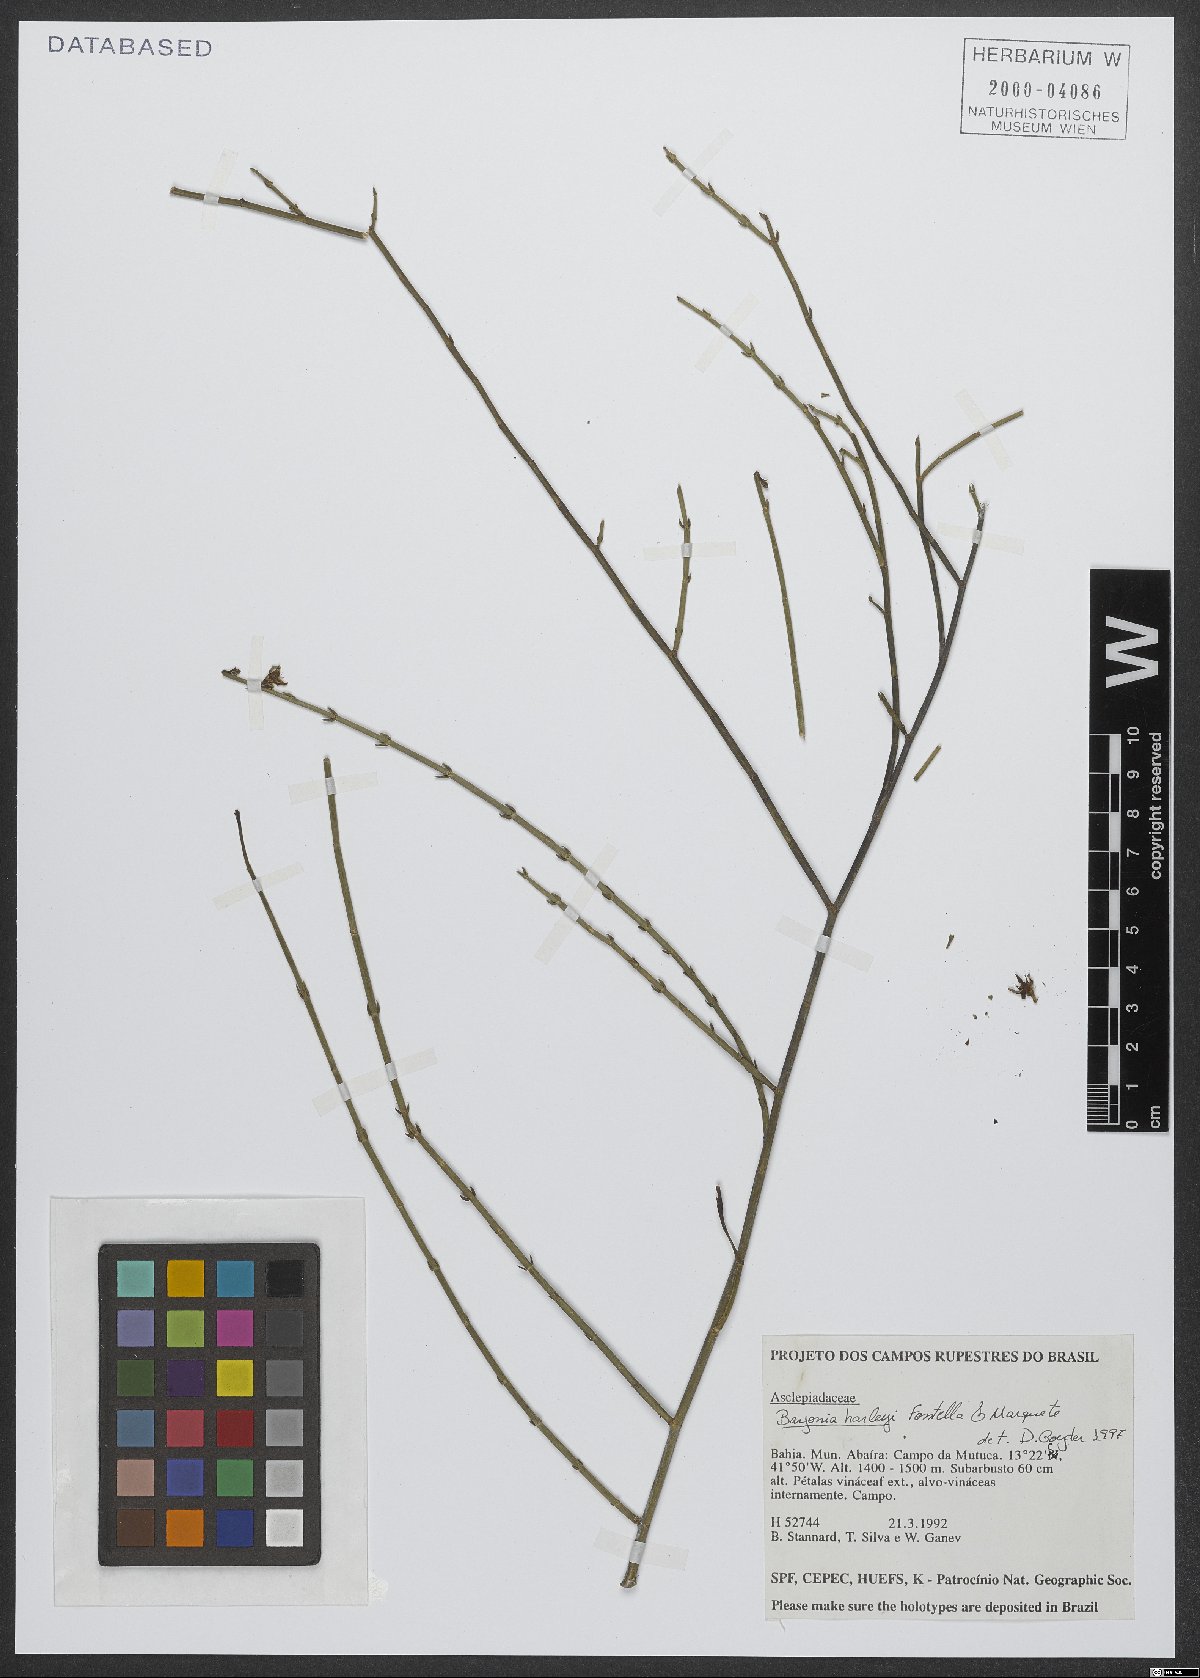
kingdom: Plantae
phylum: Tracheophyta
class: Magnoliopsida
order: Gentianales
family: Apocynaceae
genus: Minaria
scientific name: Minaria harleyi
